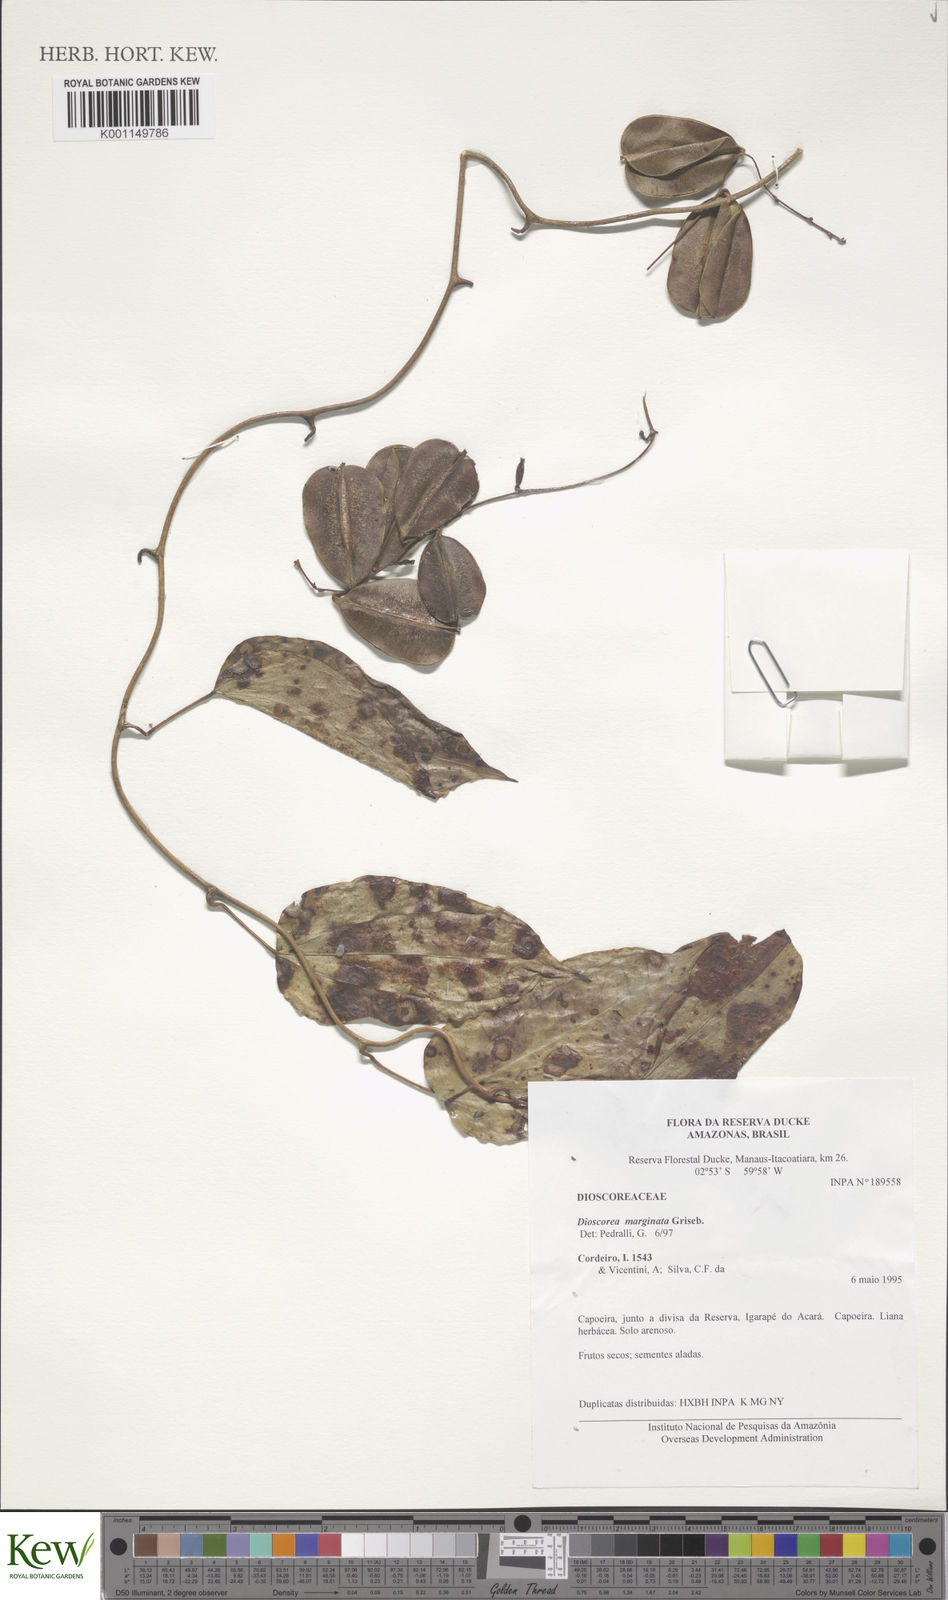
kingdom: Plantae
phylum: Tracheophyta
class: Liliopsida
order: Dioscoreales
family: Dioscoreaceae
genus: Dioscorea
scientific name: Dioscorea
